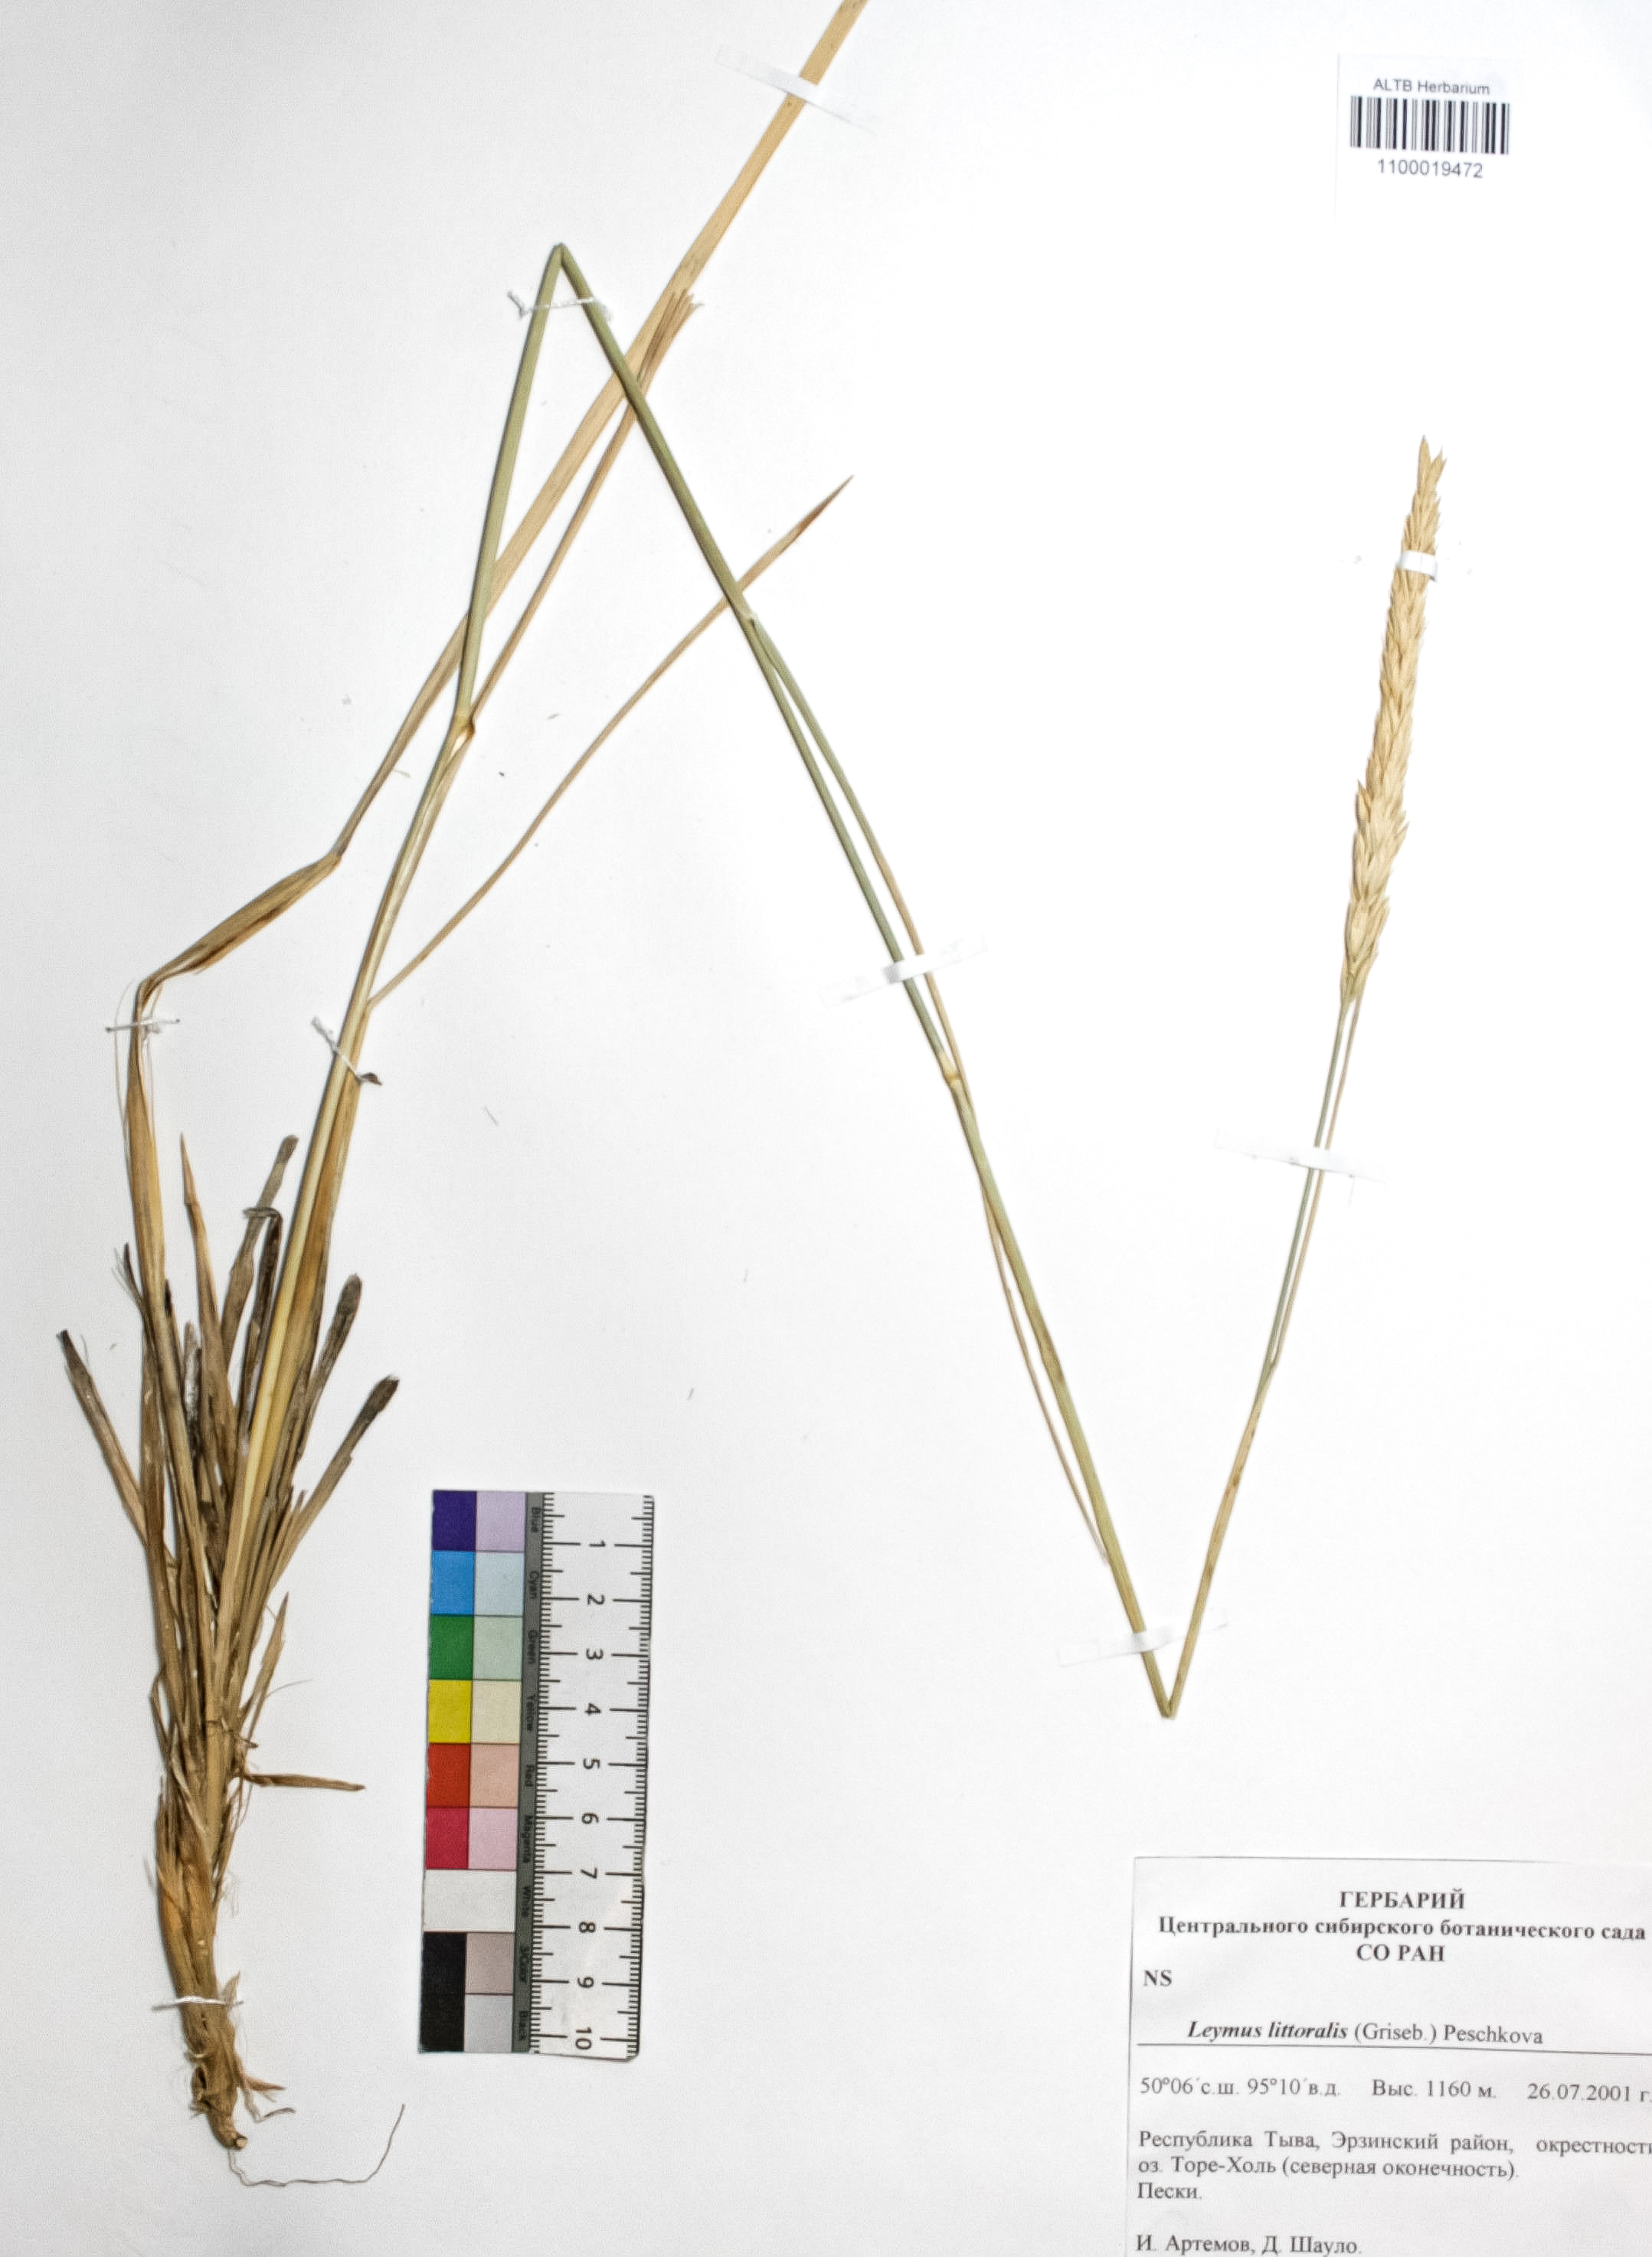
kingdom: Plantae
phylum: Tracheophyta
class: Liliopsida
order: Poales
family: Poaceae
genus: Leymus
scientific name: Leymus secalinus
